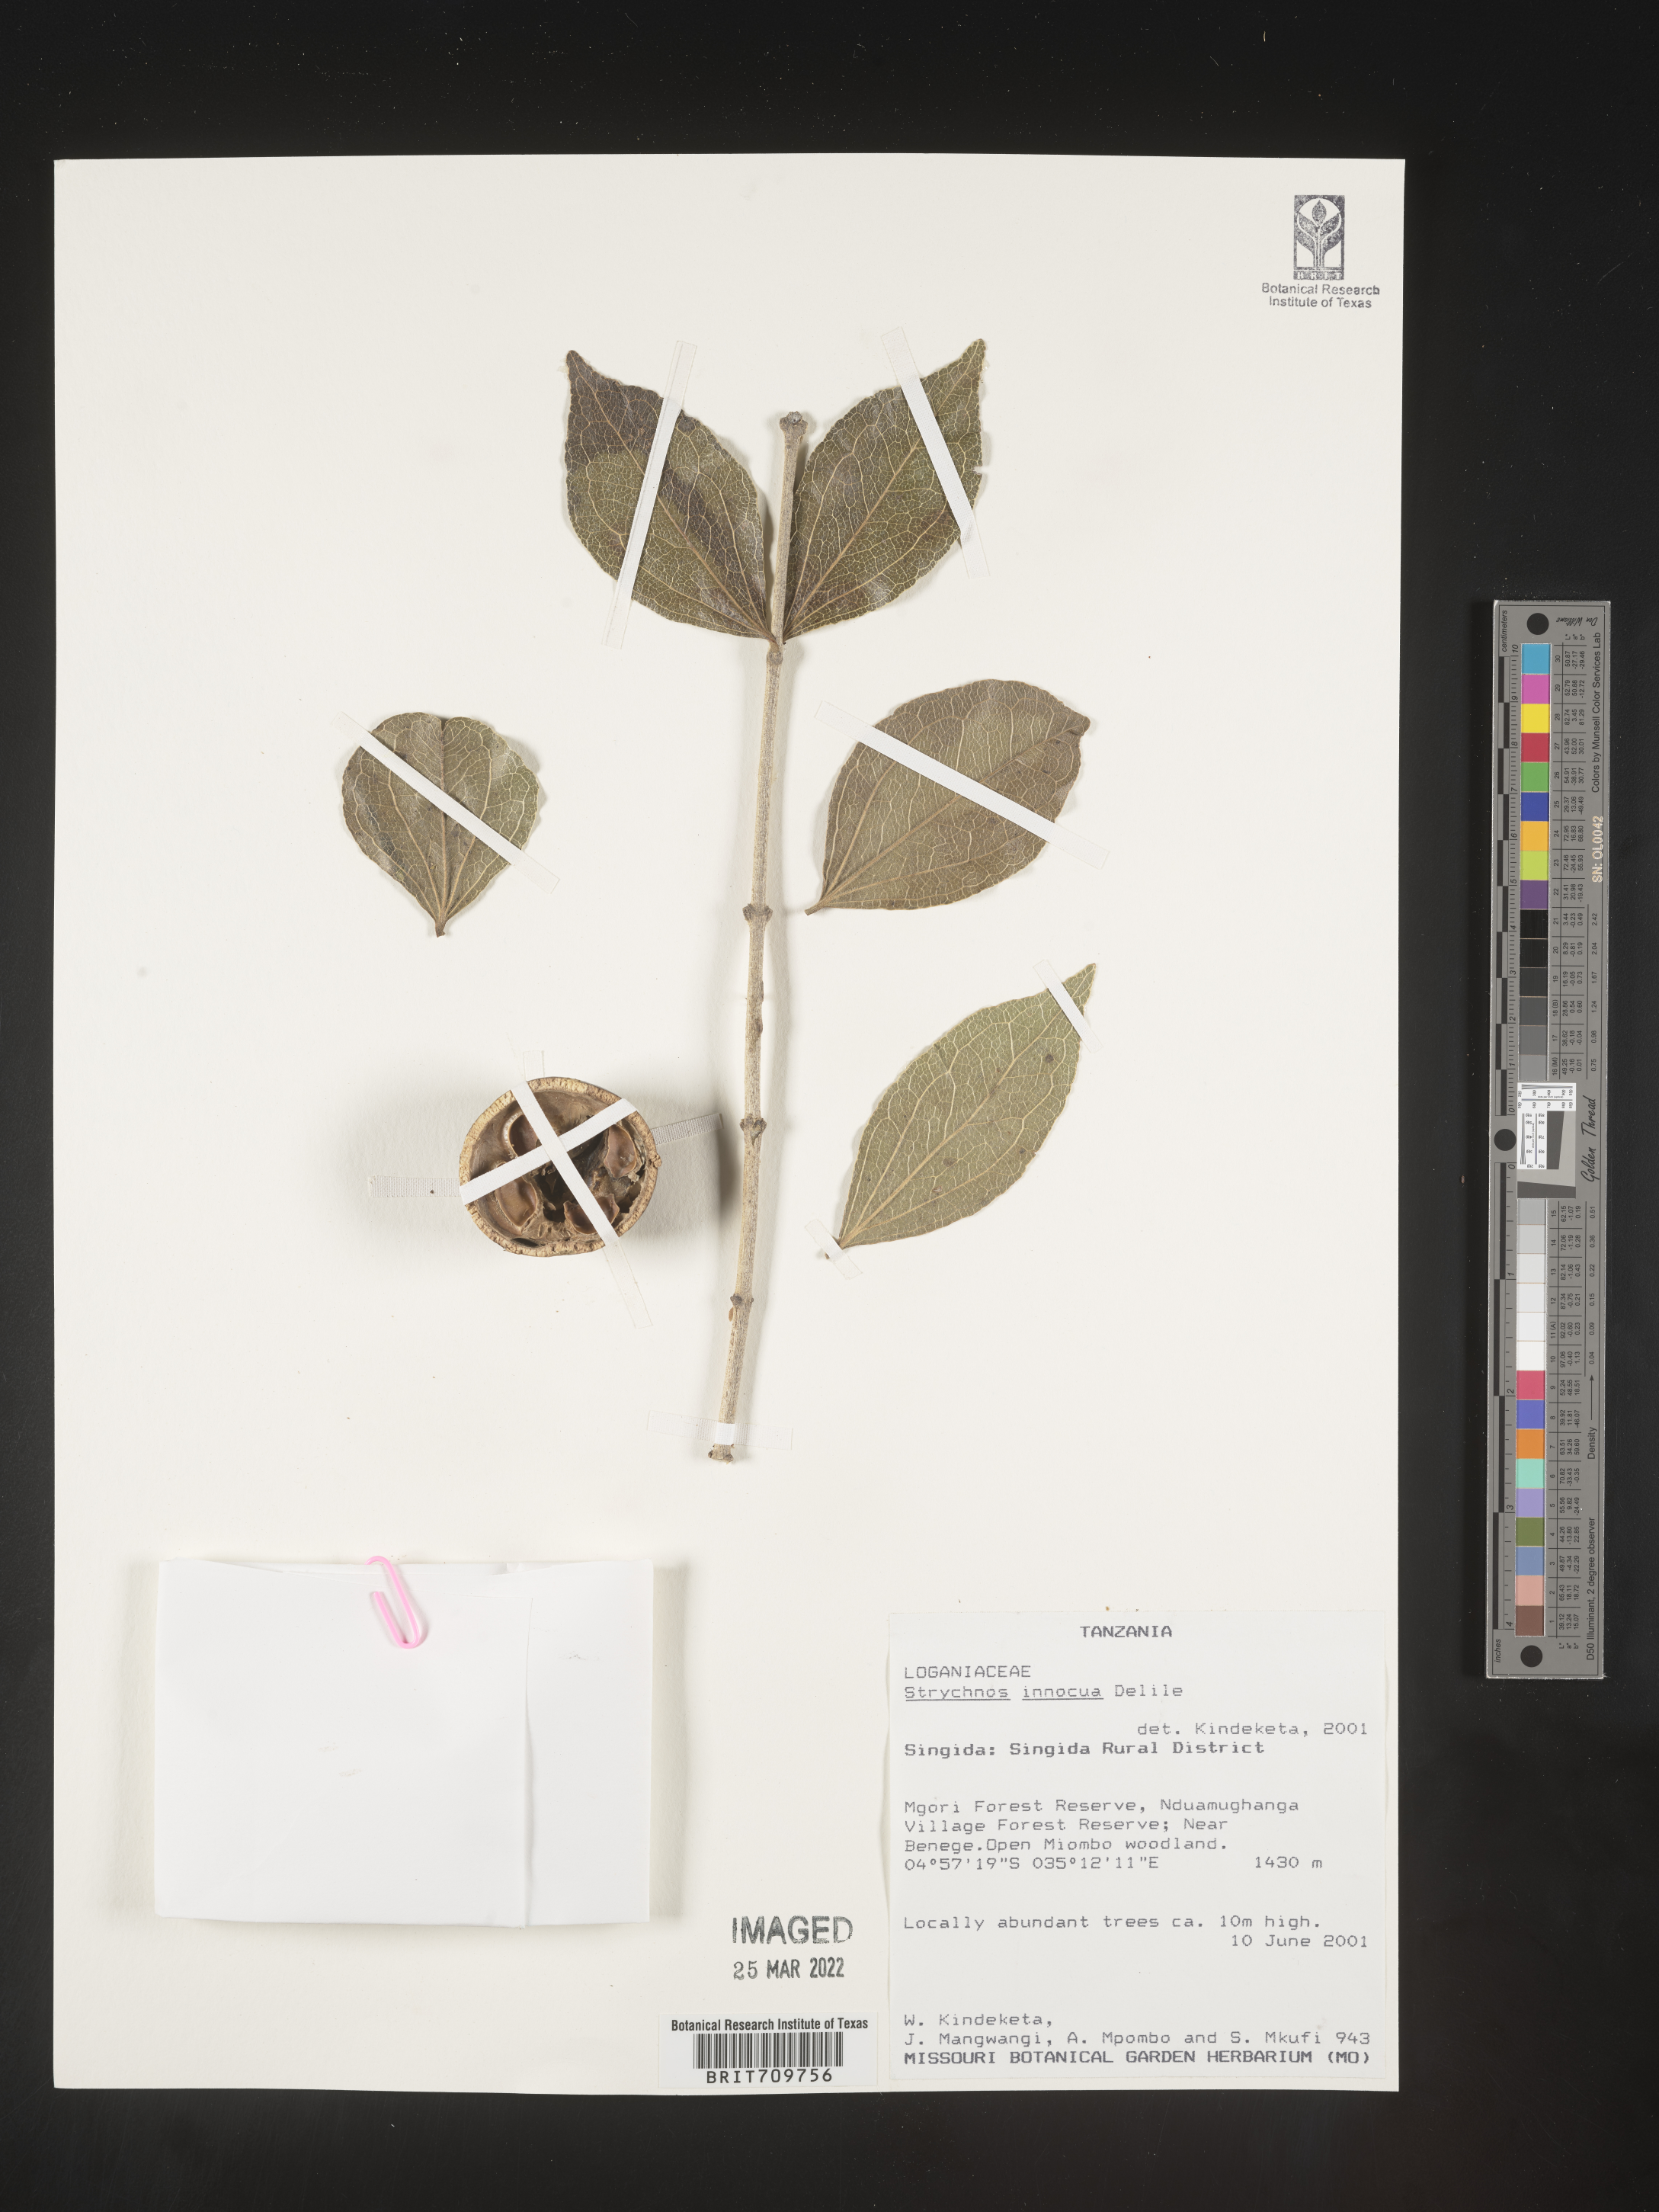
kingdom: Plantae
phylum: Tracheophyta
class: Magnoliopsida
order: Gentianales
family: Loganiaceae
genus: Strychnos
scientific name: Strychnos
